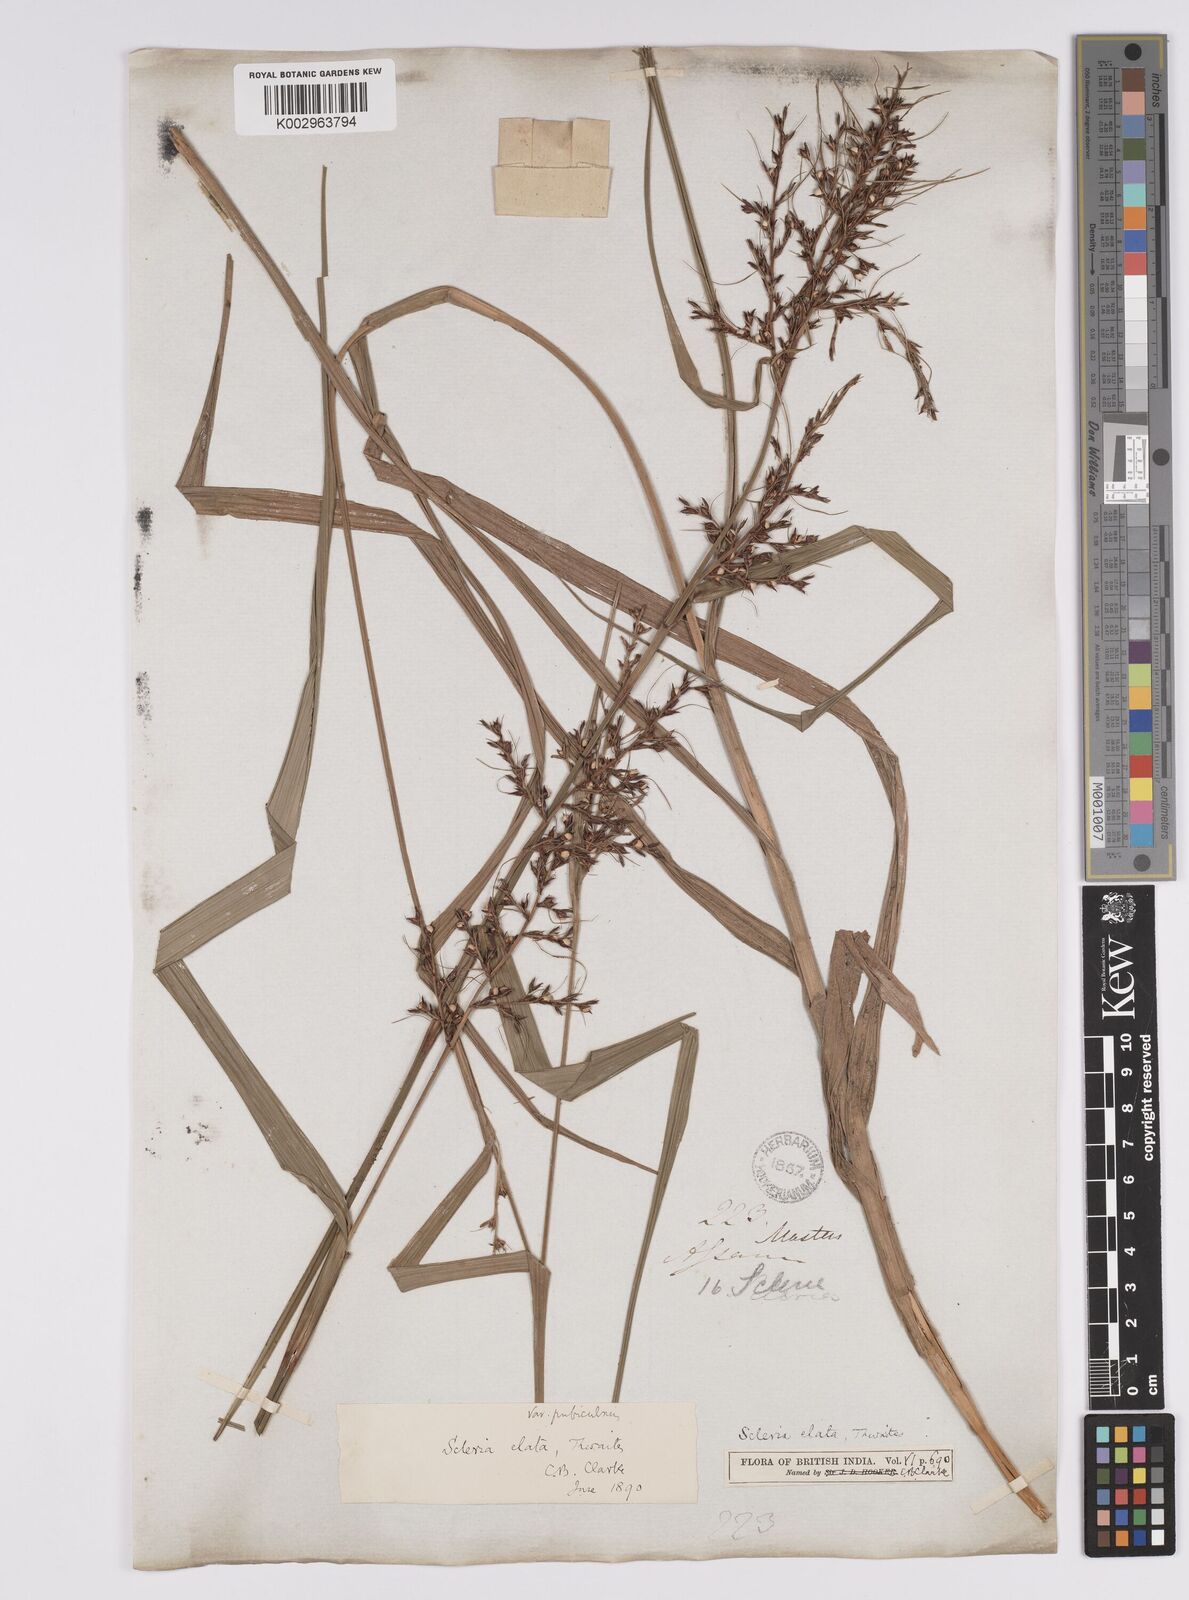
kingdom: Plantae
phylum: Tracheophyta
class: Liliopsida
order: Poales
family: Cyperaceae
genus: Scleria
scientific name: Scleria terrestris
